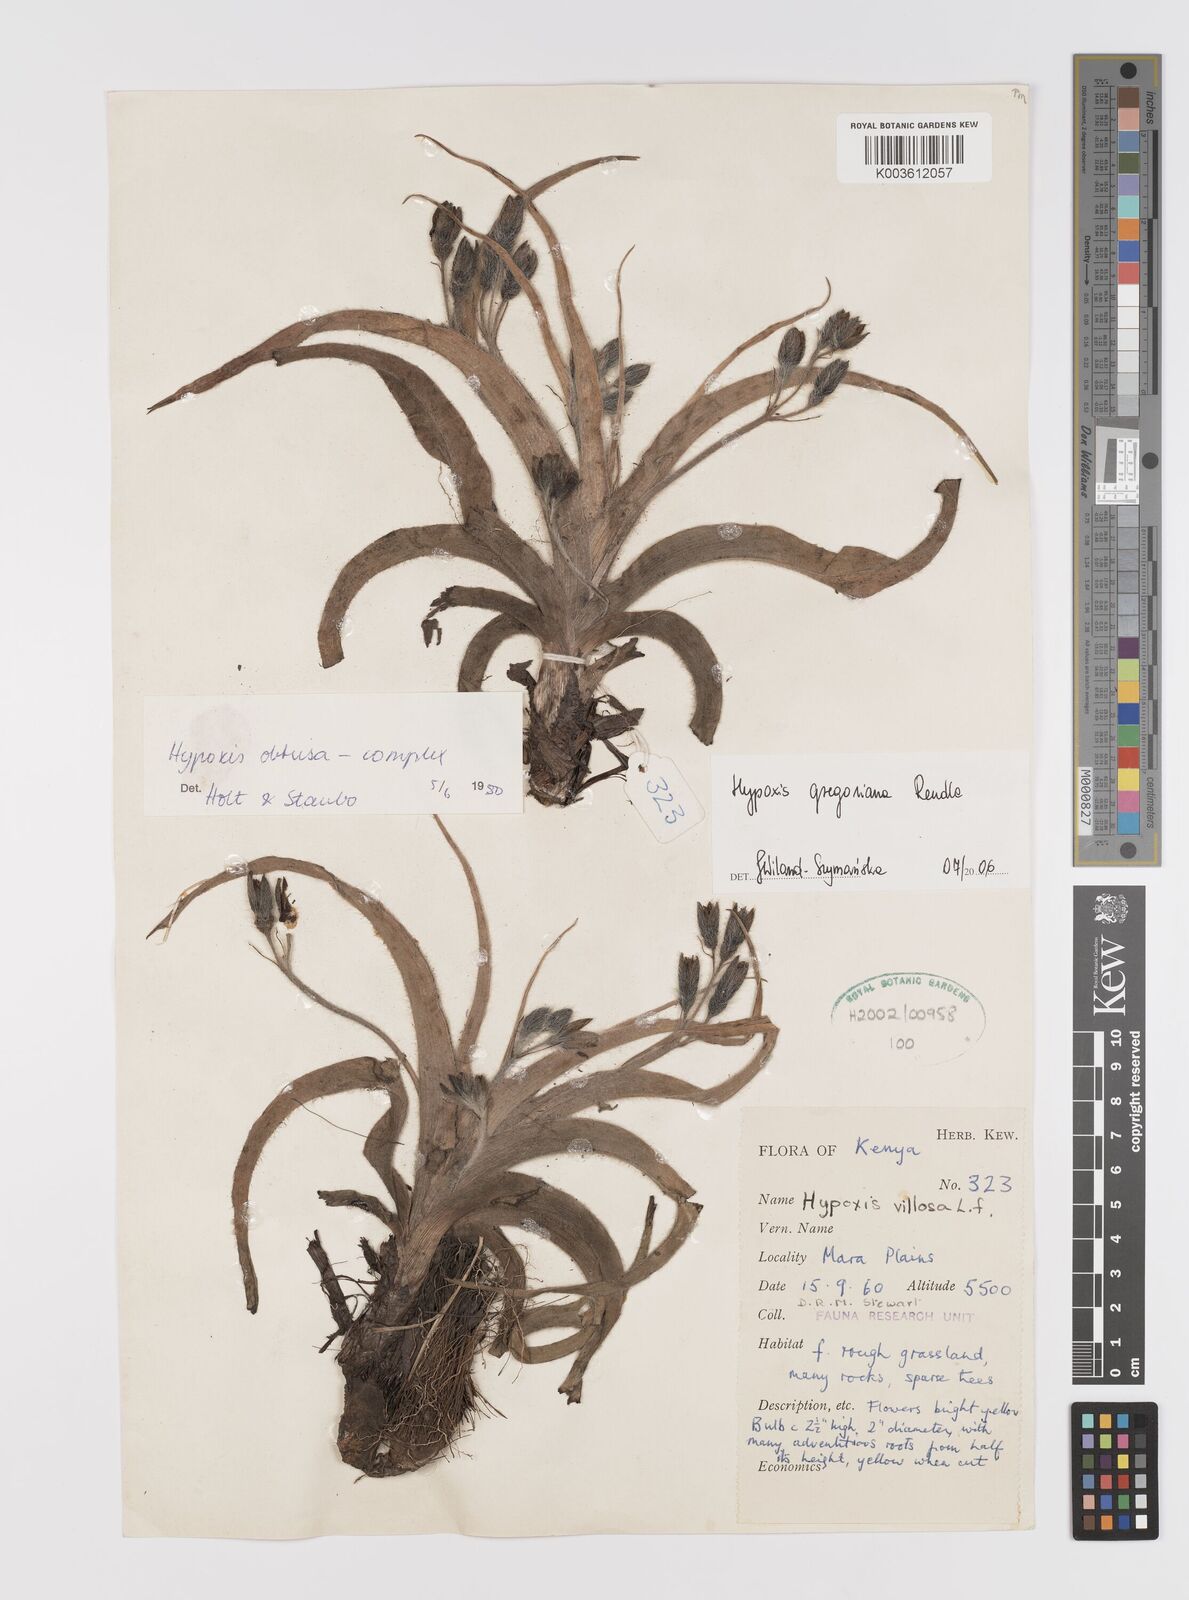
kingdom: Plantae
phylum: Tracheophyta
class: Liliopsida
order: Asparagales
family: Hypoxidaceae
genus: Hypoxis
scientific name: Hypoxis gregoriana
